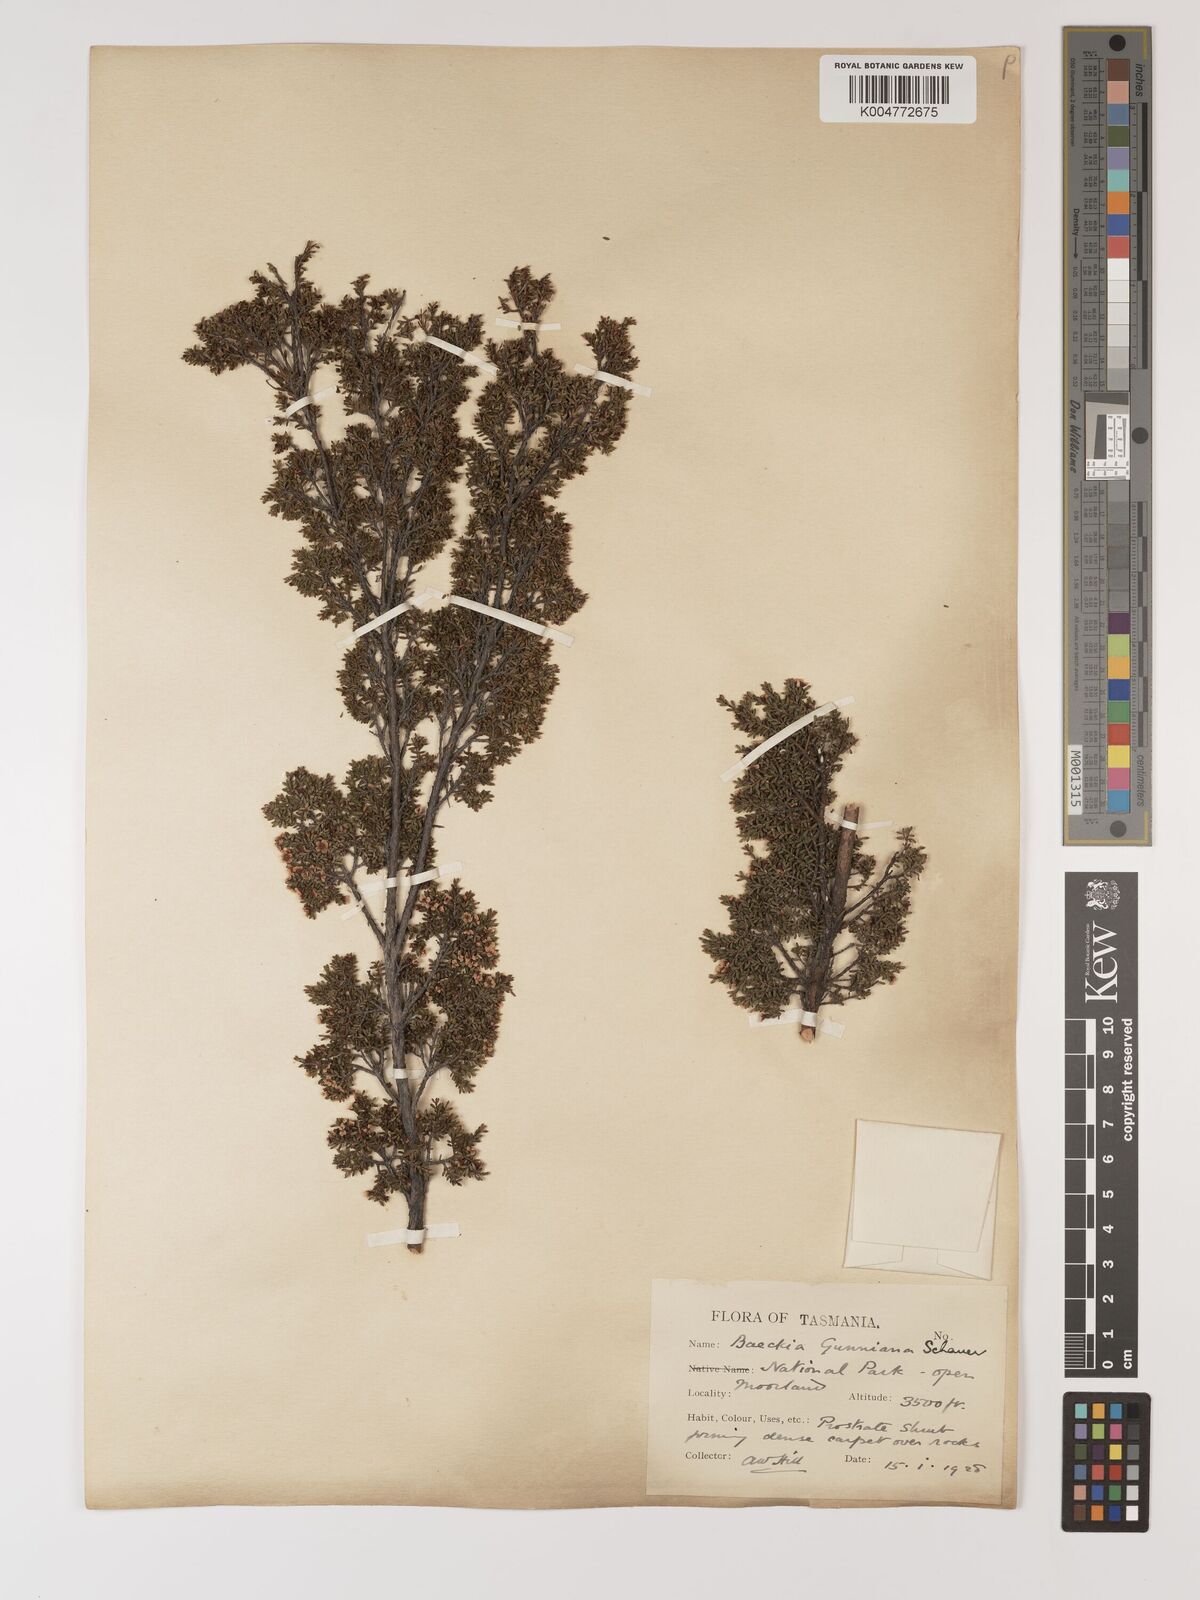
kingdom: Plantae
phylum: Tracheophyta
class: Magnoliopsida
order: Myrtales
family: Myrtaceae
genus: Baeckea
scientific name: Baeckea gunniana
